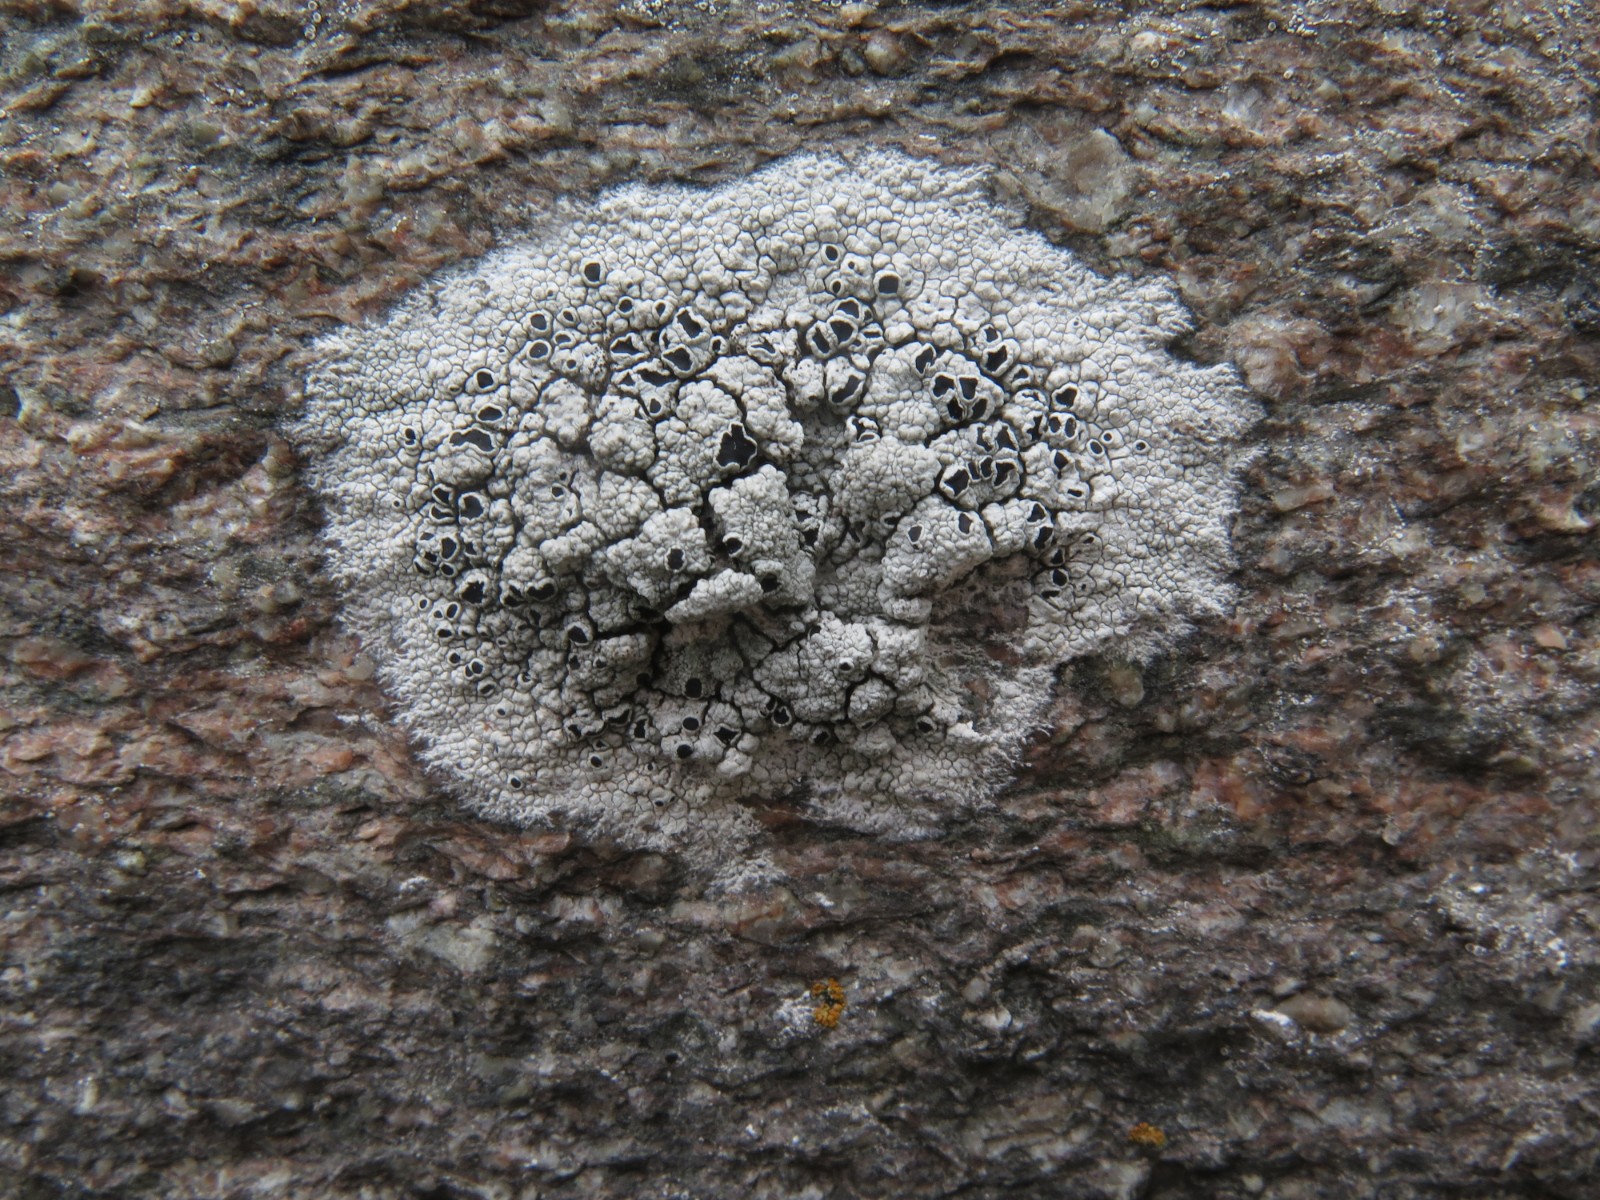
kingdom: Fungi
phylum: Ascomycota
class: Lecanoromycetes
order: Lecanorales
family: Tephromelataceae
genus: Tephromela
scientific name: Tephromela atra
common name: sortfrugtet kantskivelav
